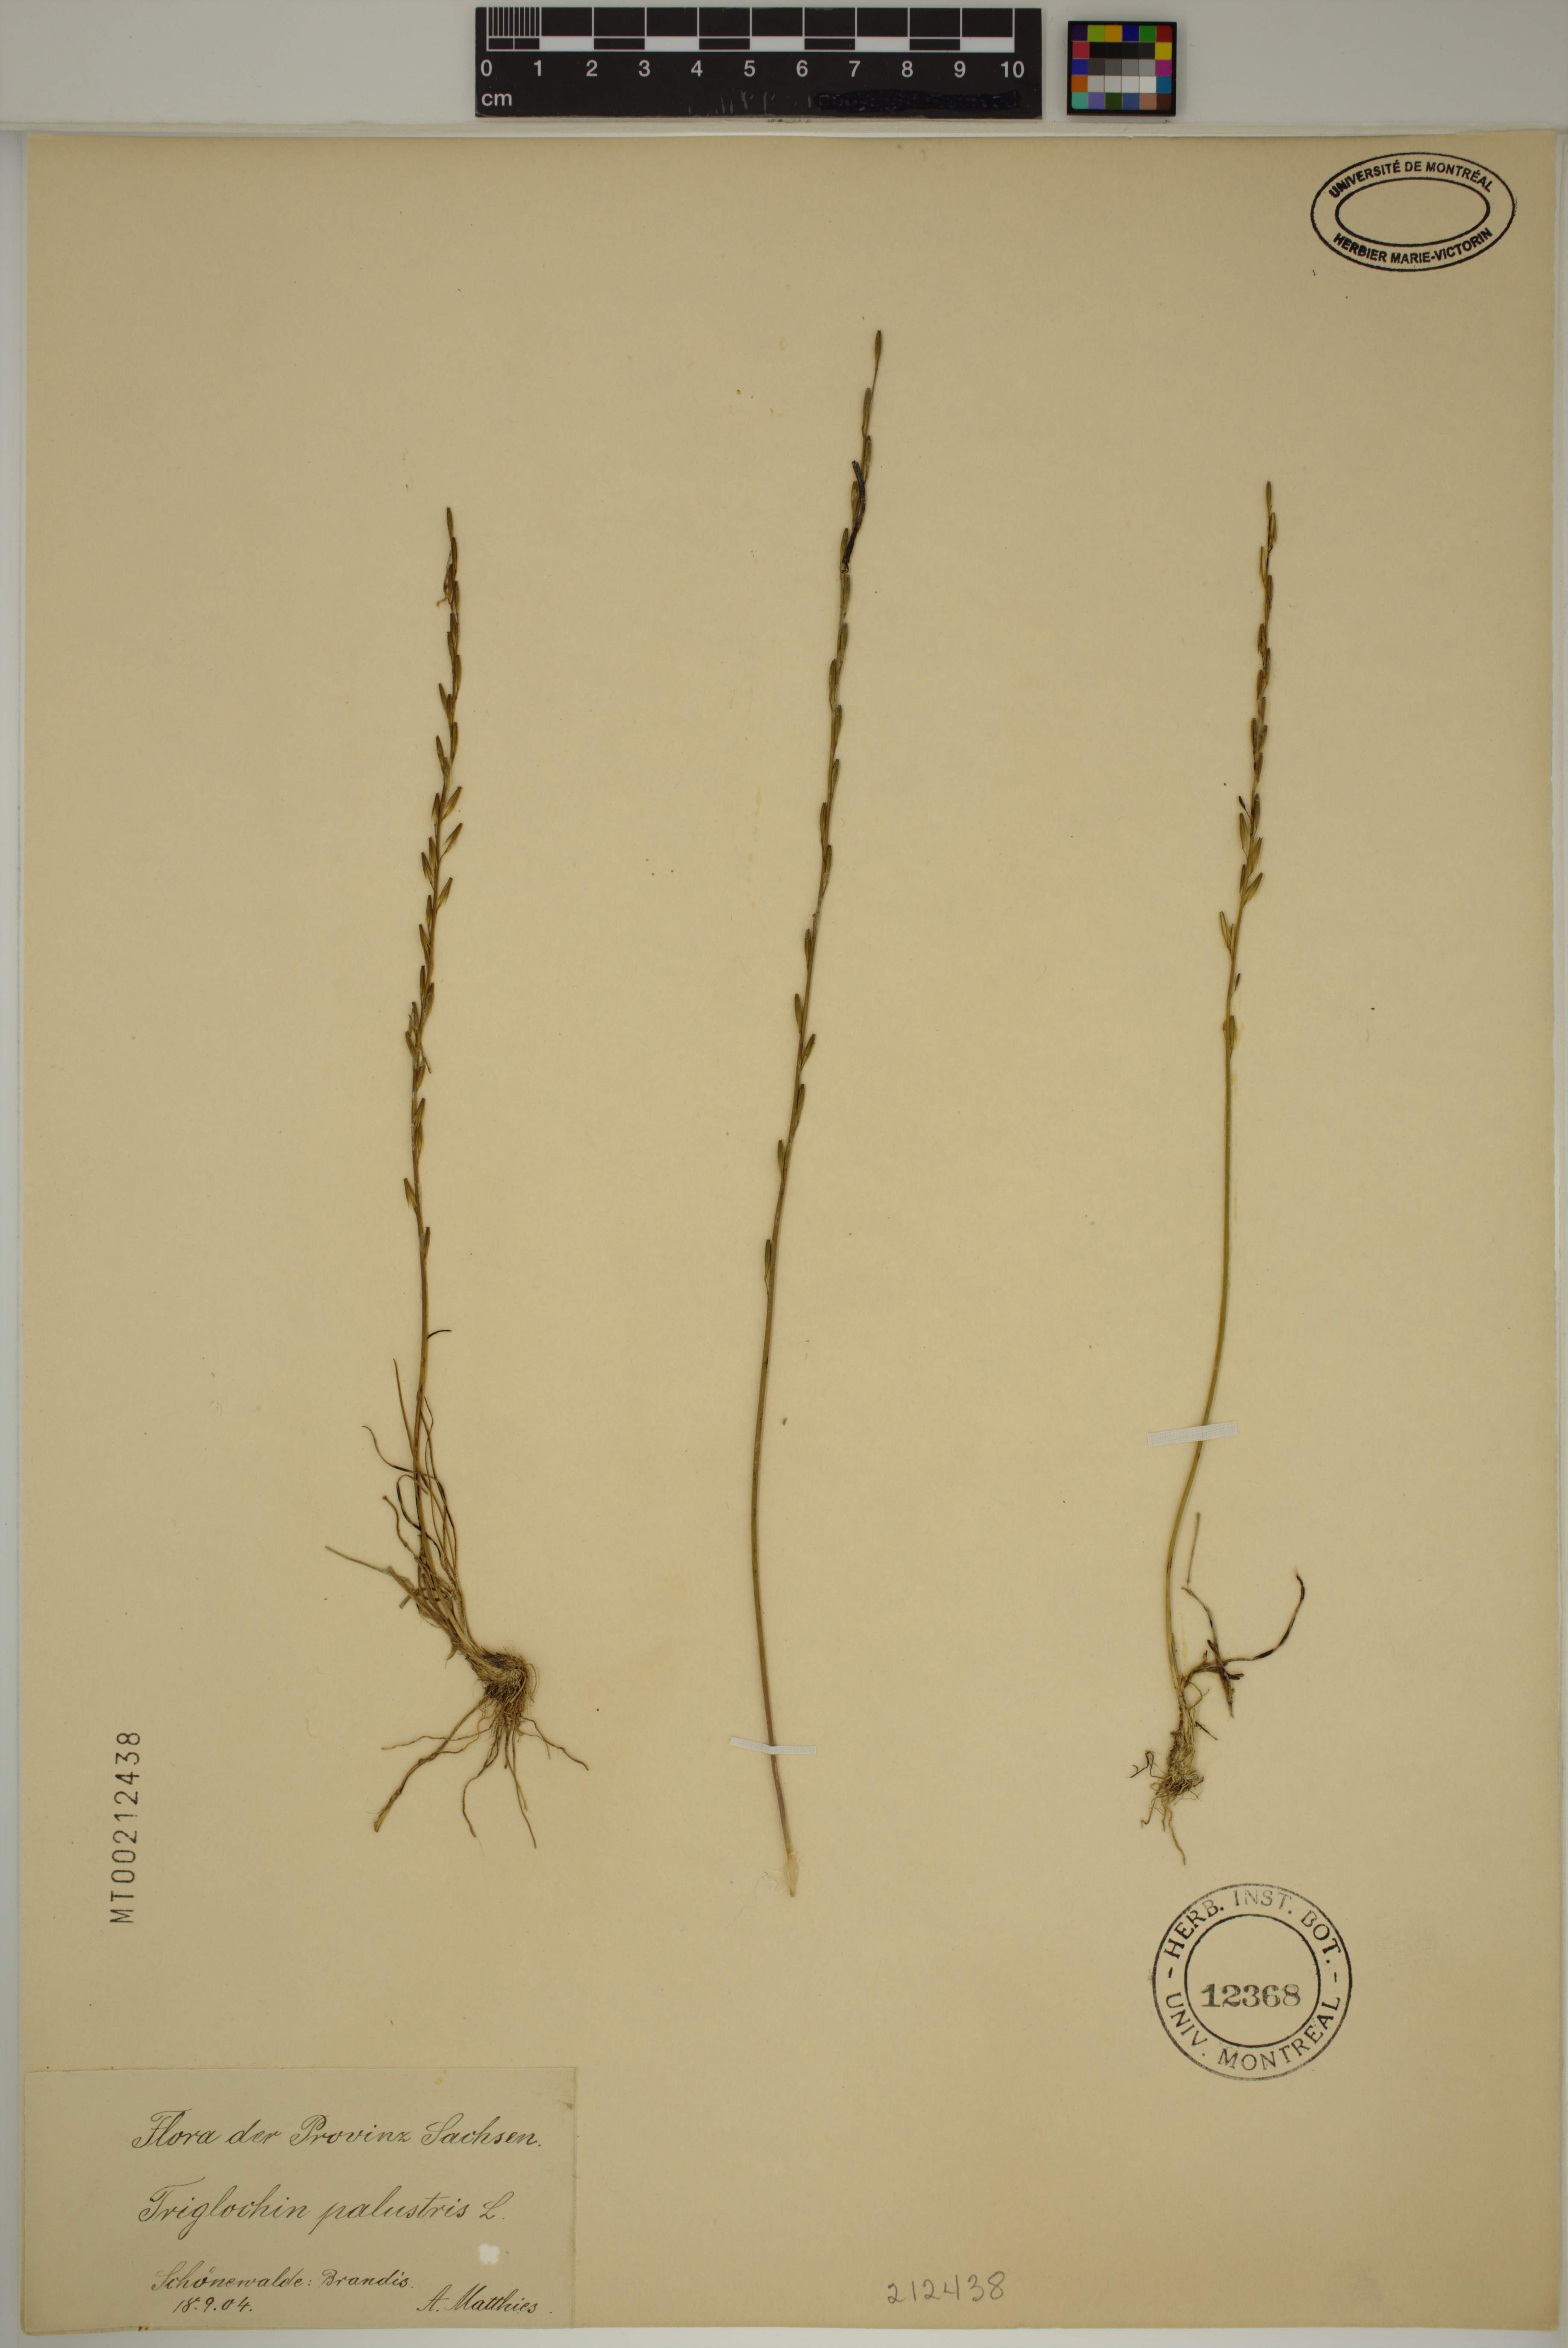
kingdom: Plantae
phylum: Tracheophyta
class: Liliopsida
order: Alismatales
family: Juncaginaceae
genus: Triglochin
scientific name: Triglochin palustris
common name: Marsh arrowgrass
